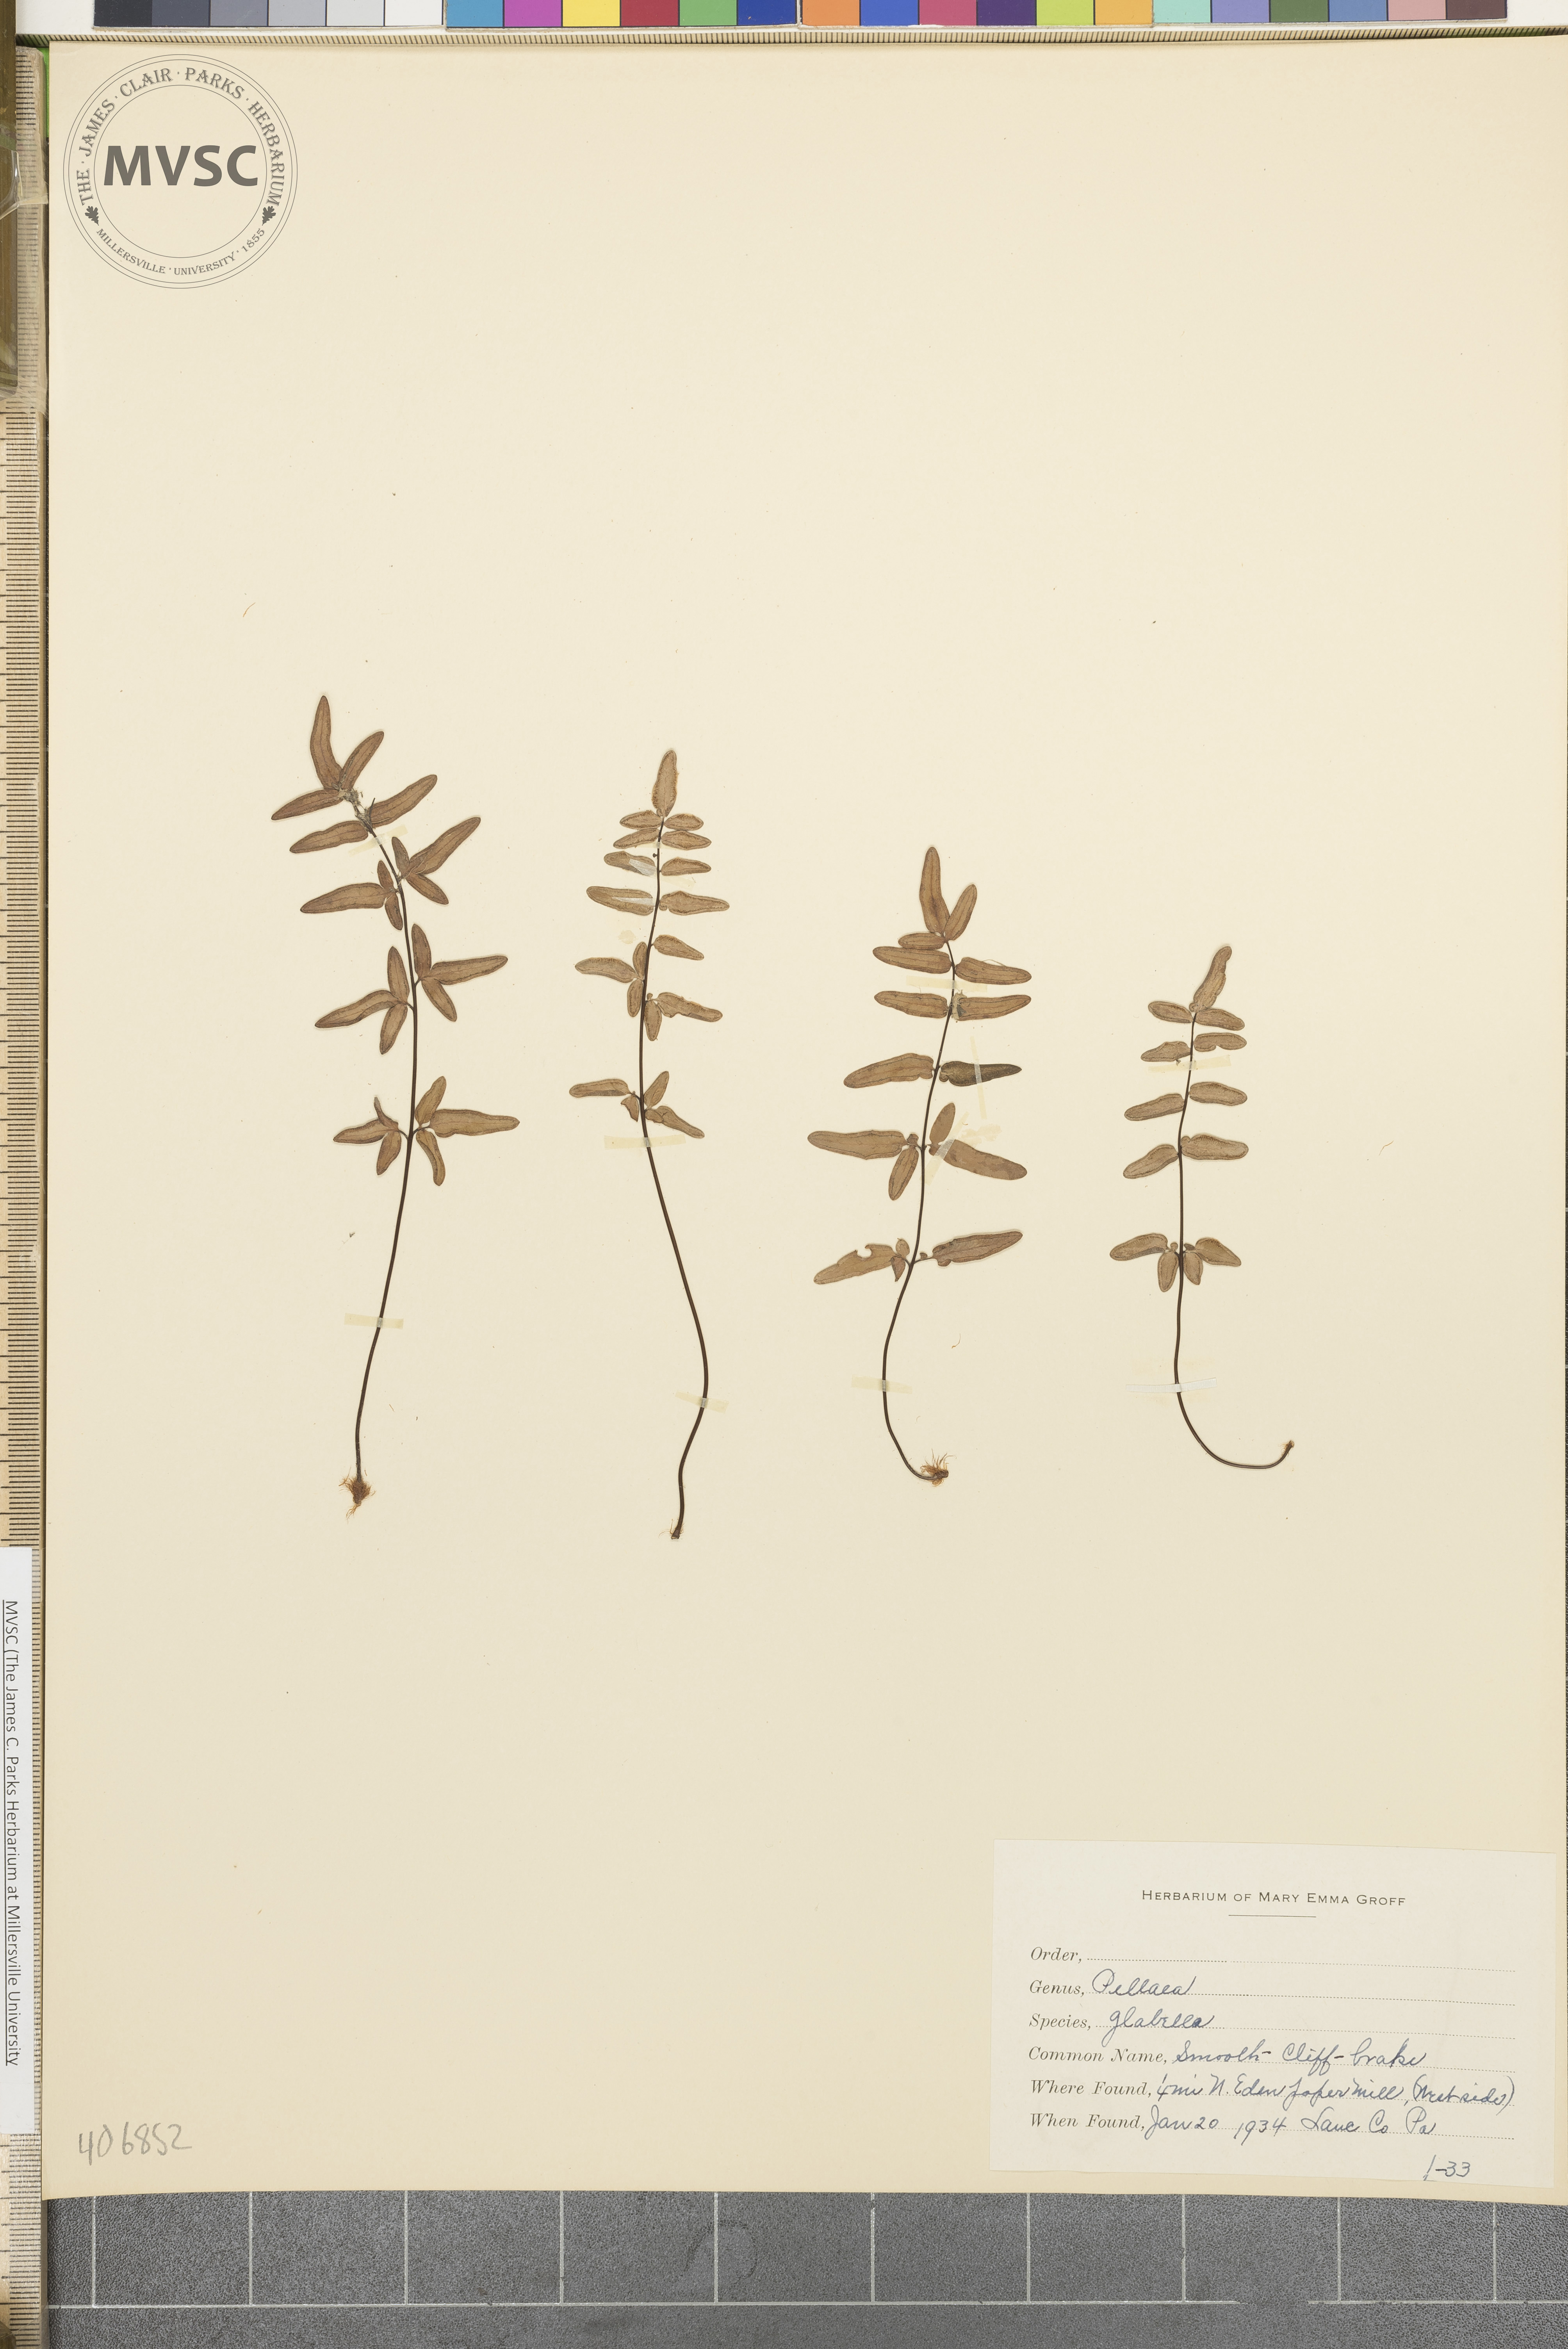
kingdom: Plantae
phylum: Tracheophyta
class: Polypodiopsida
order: Polypodiales
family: Pteridaceae
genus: Pellaea
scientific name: Pellaea glabella
